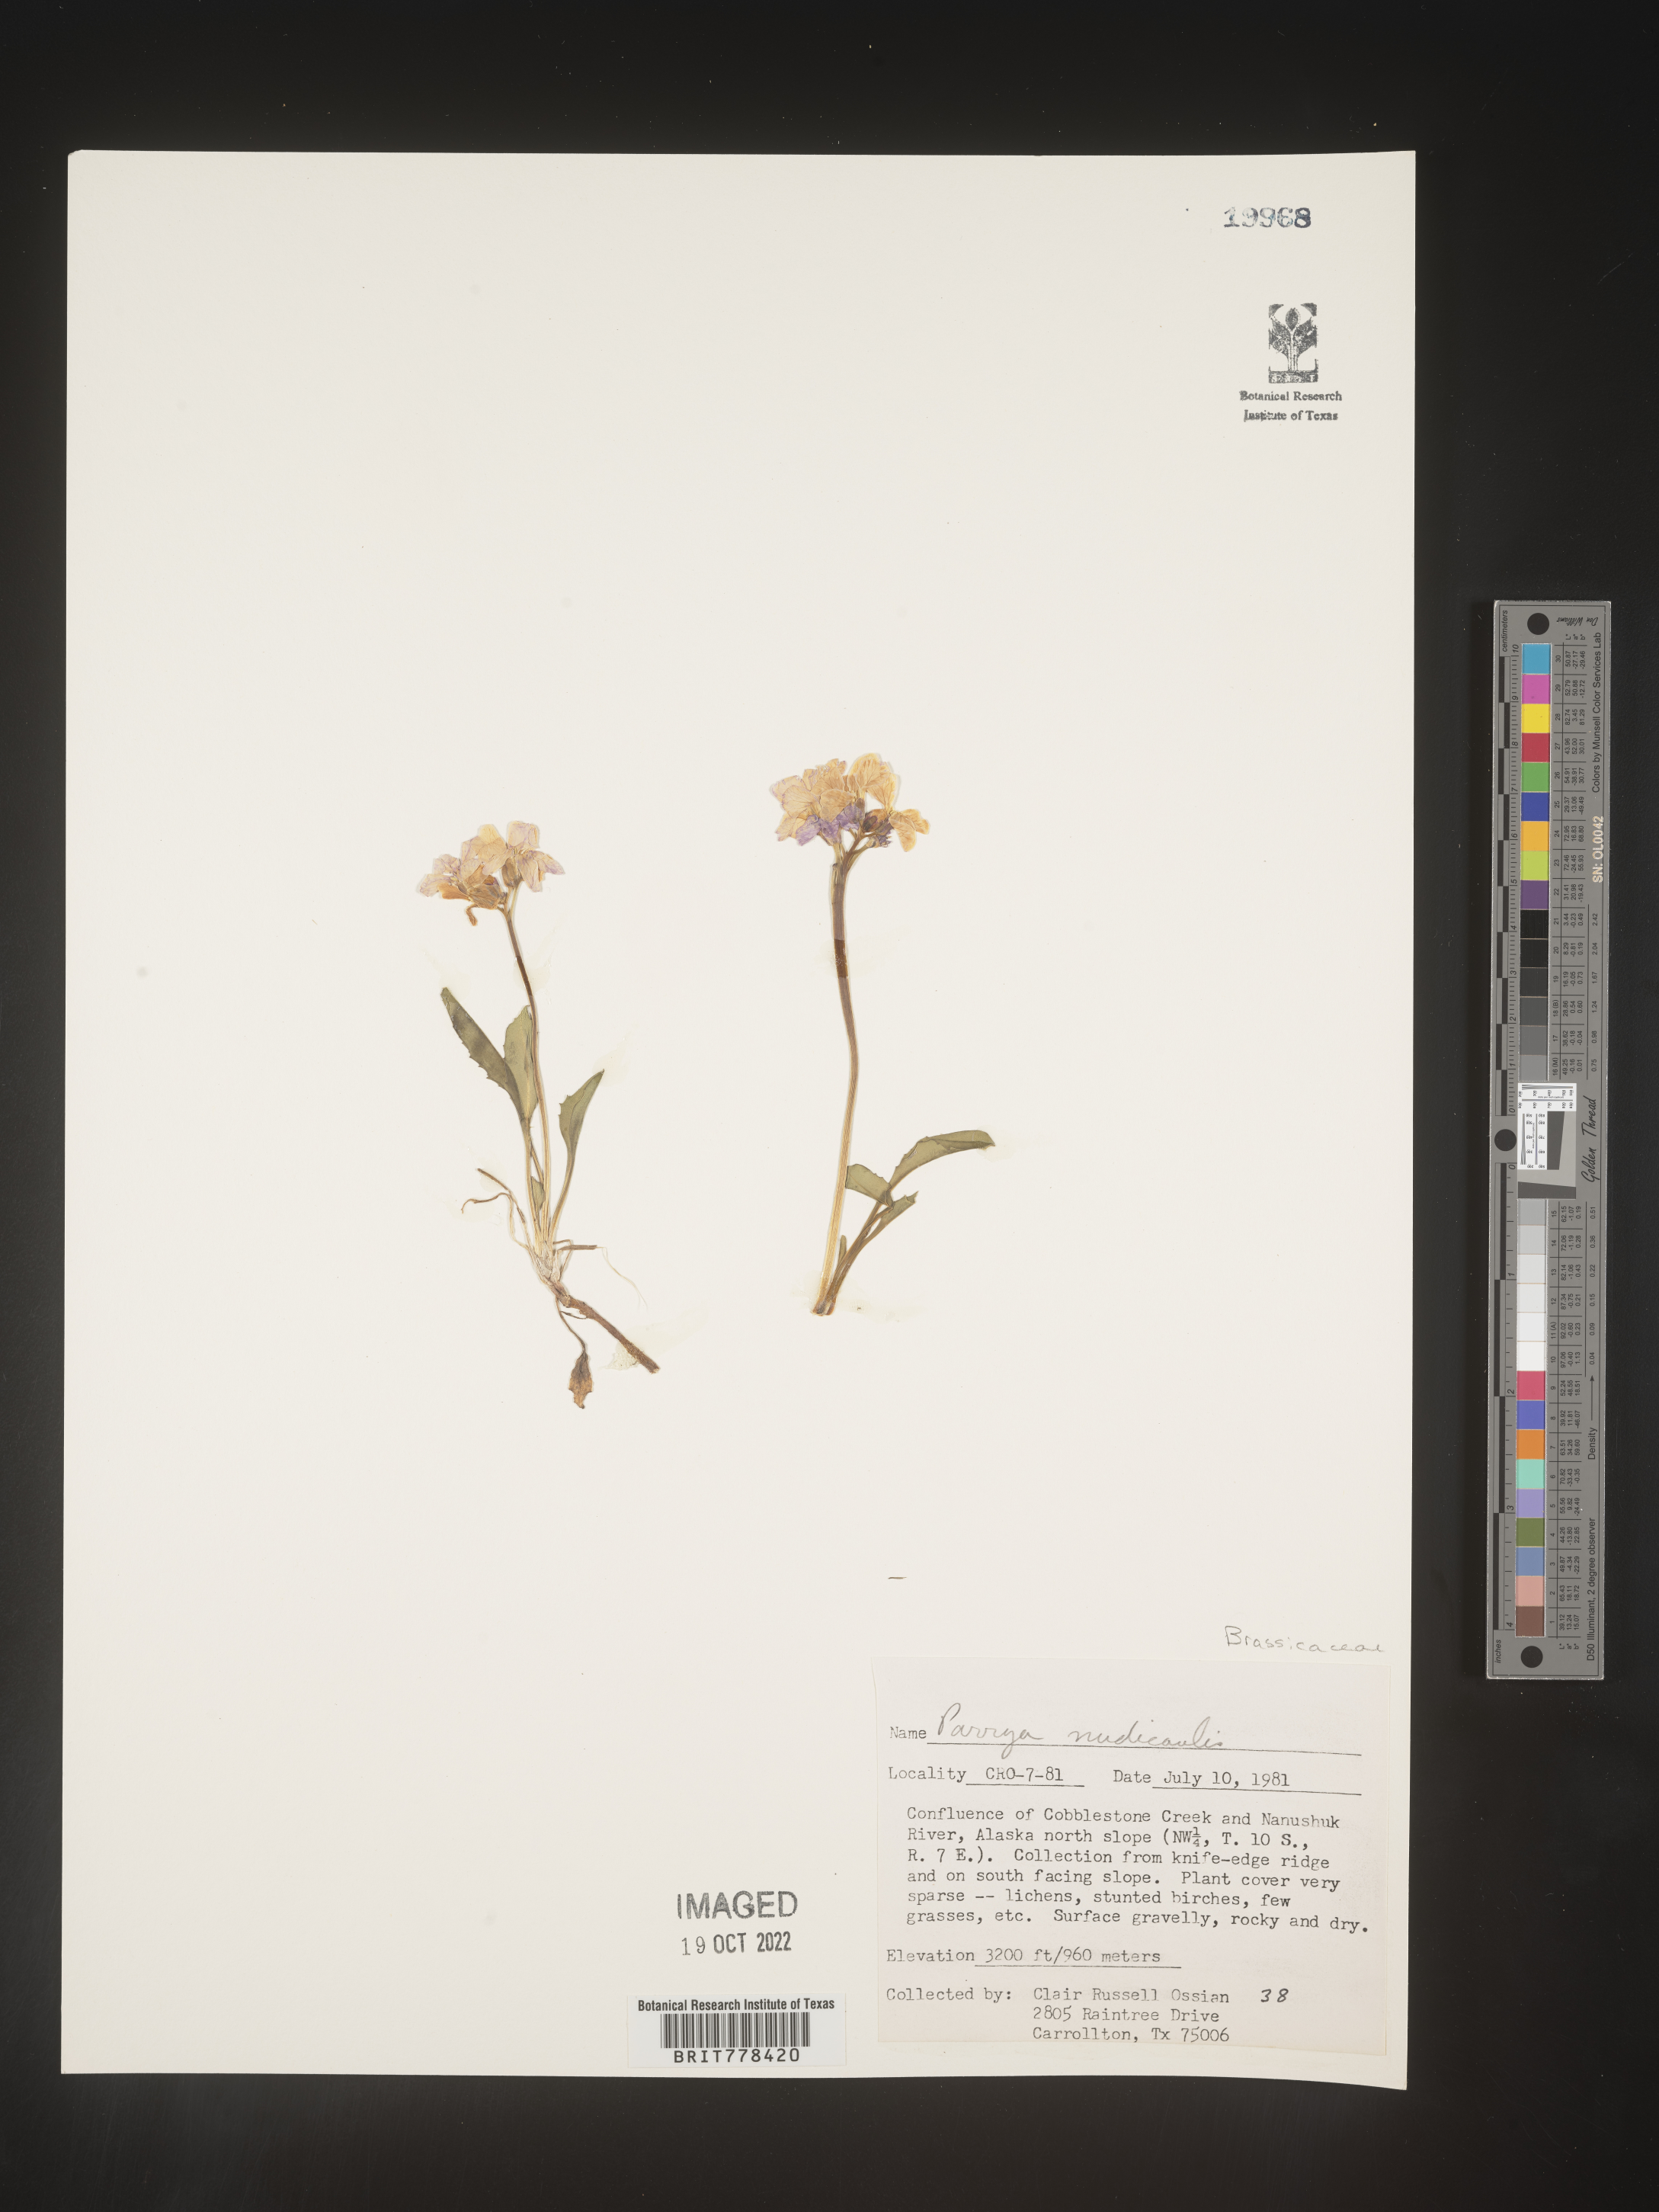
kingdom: Plantae
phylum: Tracheophyta
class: Magnoliopsida
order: Brassicales
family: Brassicaceae
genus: Parrya
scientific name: Parrya
